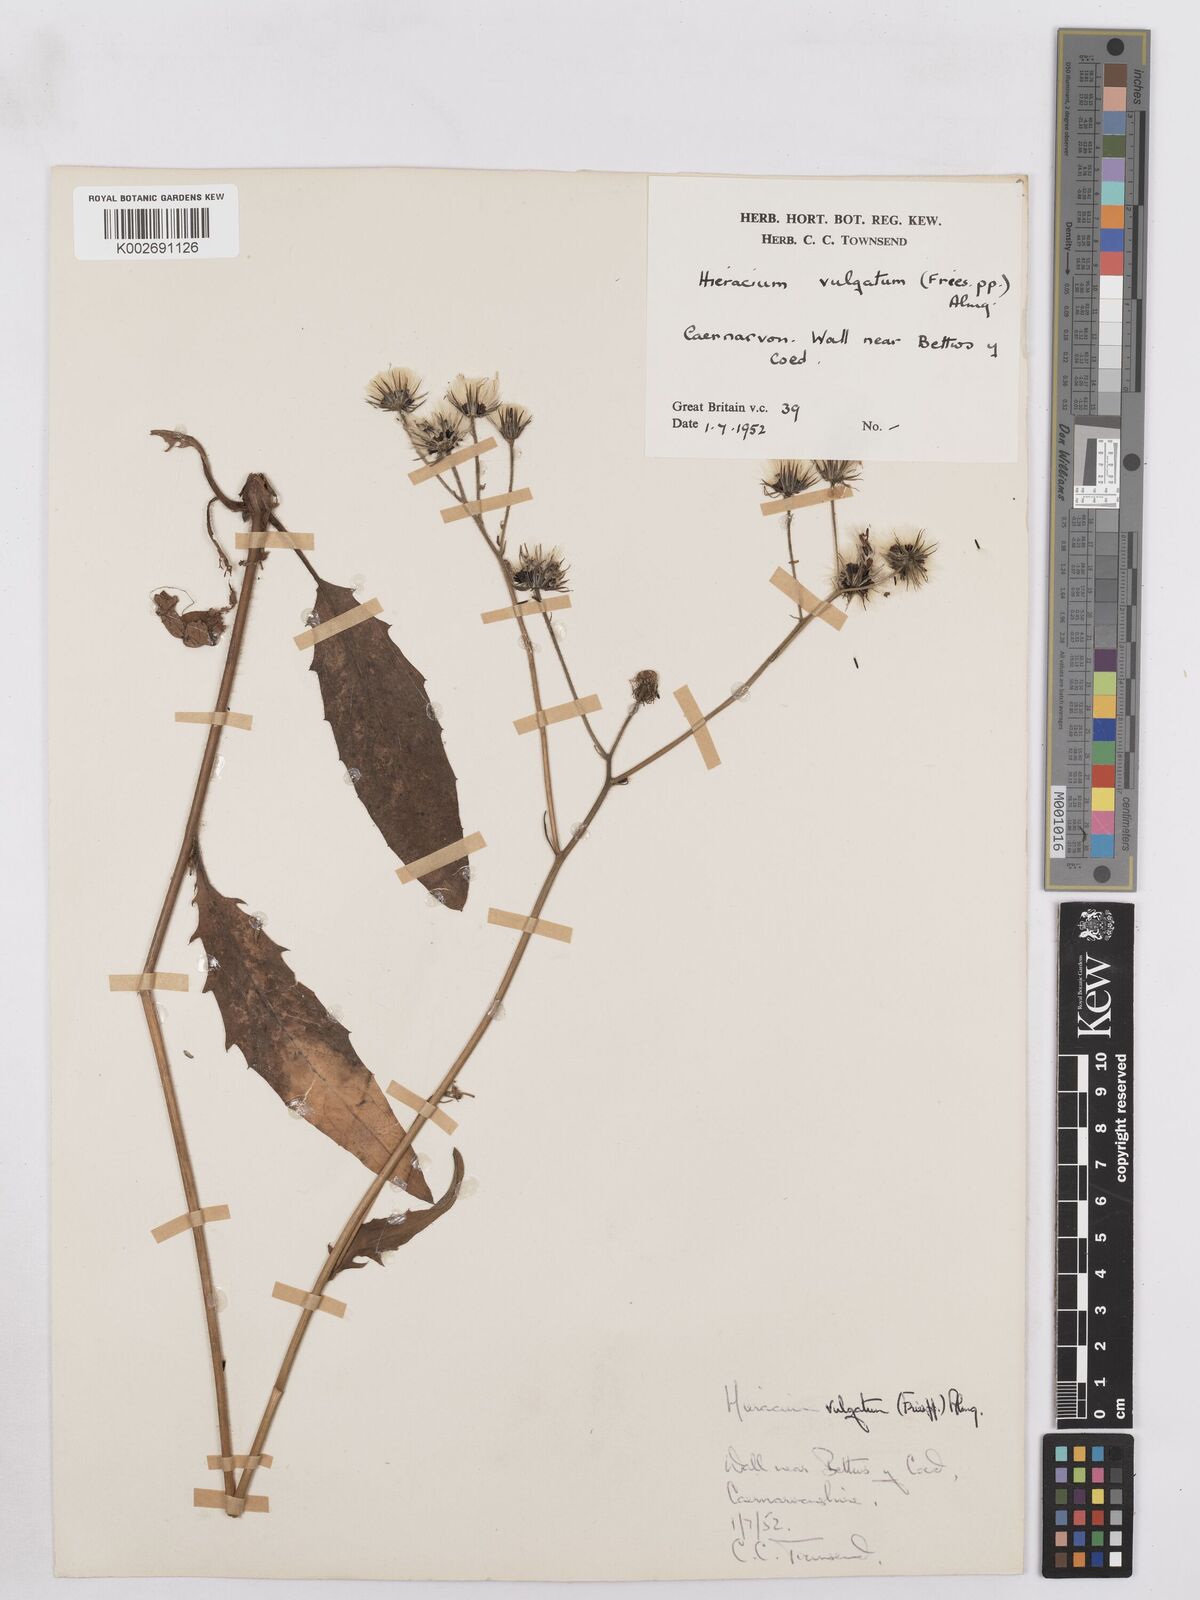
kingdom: Plantae
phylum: Tracheophyta
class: Magnoliopsida
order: Asterales
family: Asteraceae
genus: Hieracium
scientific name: Hieracium lachenalii
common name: Common hawkweed
